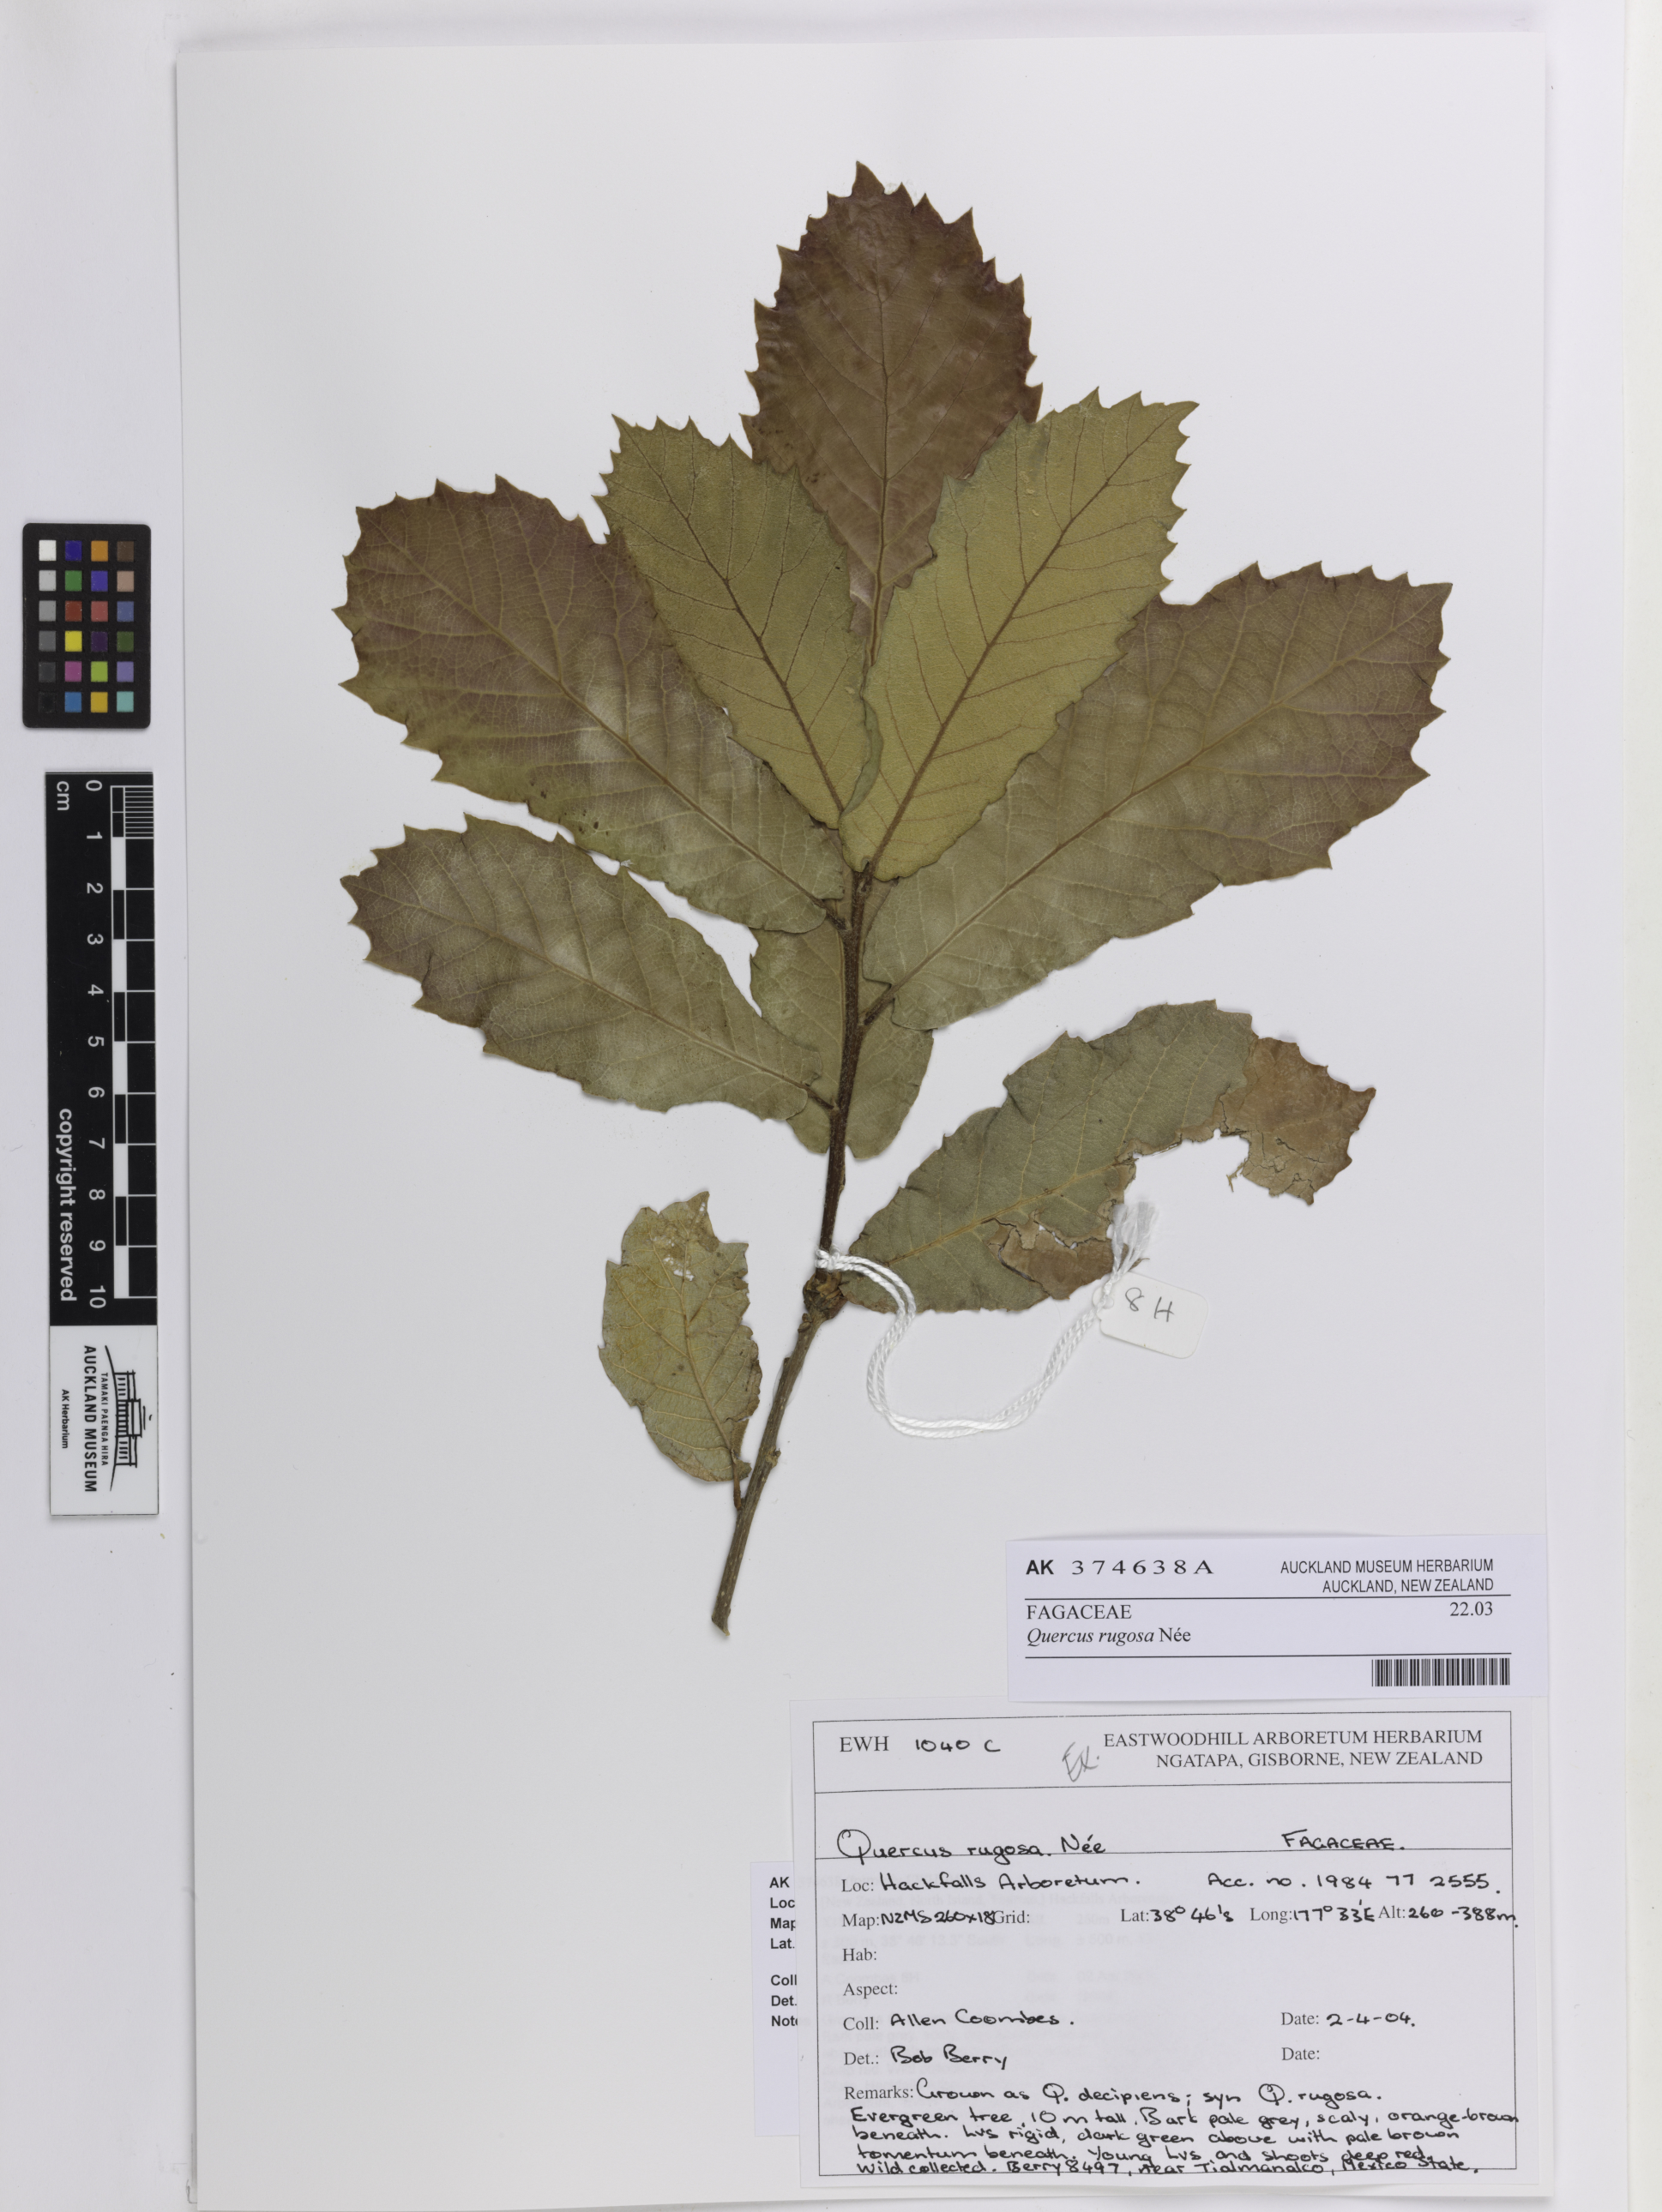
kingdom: Plantae
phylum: Tracheophyta
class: Magnoliopsida
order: Fagales
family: Fagaceae
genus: Quercus
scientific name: Quercus rugosa
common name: Netleaf oak
